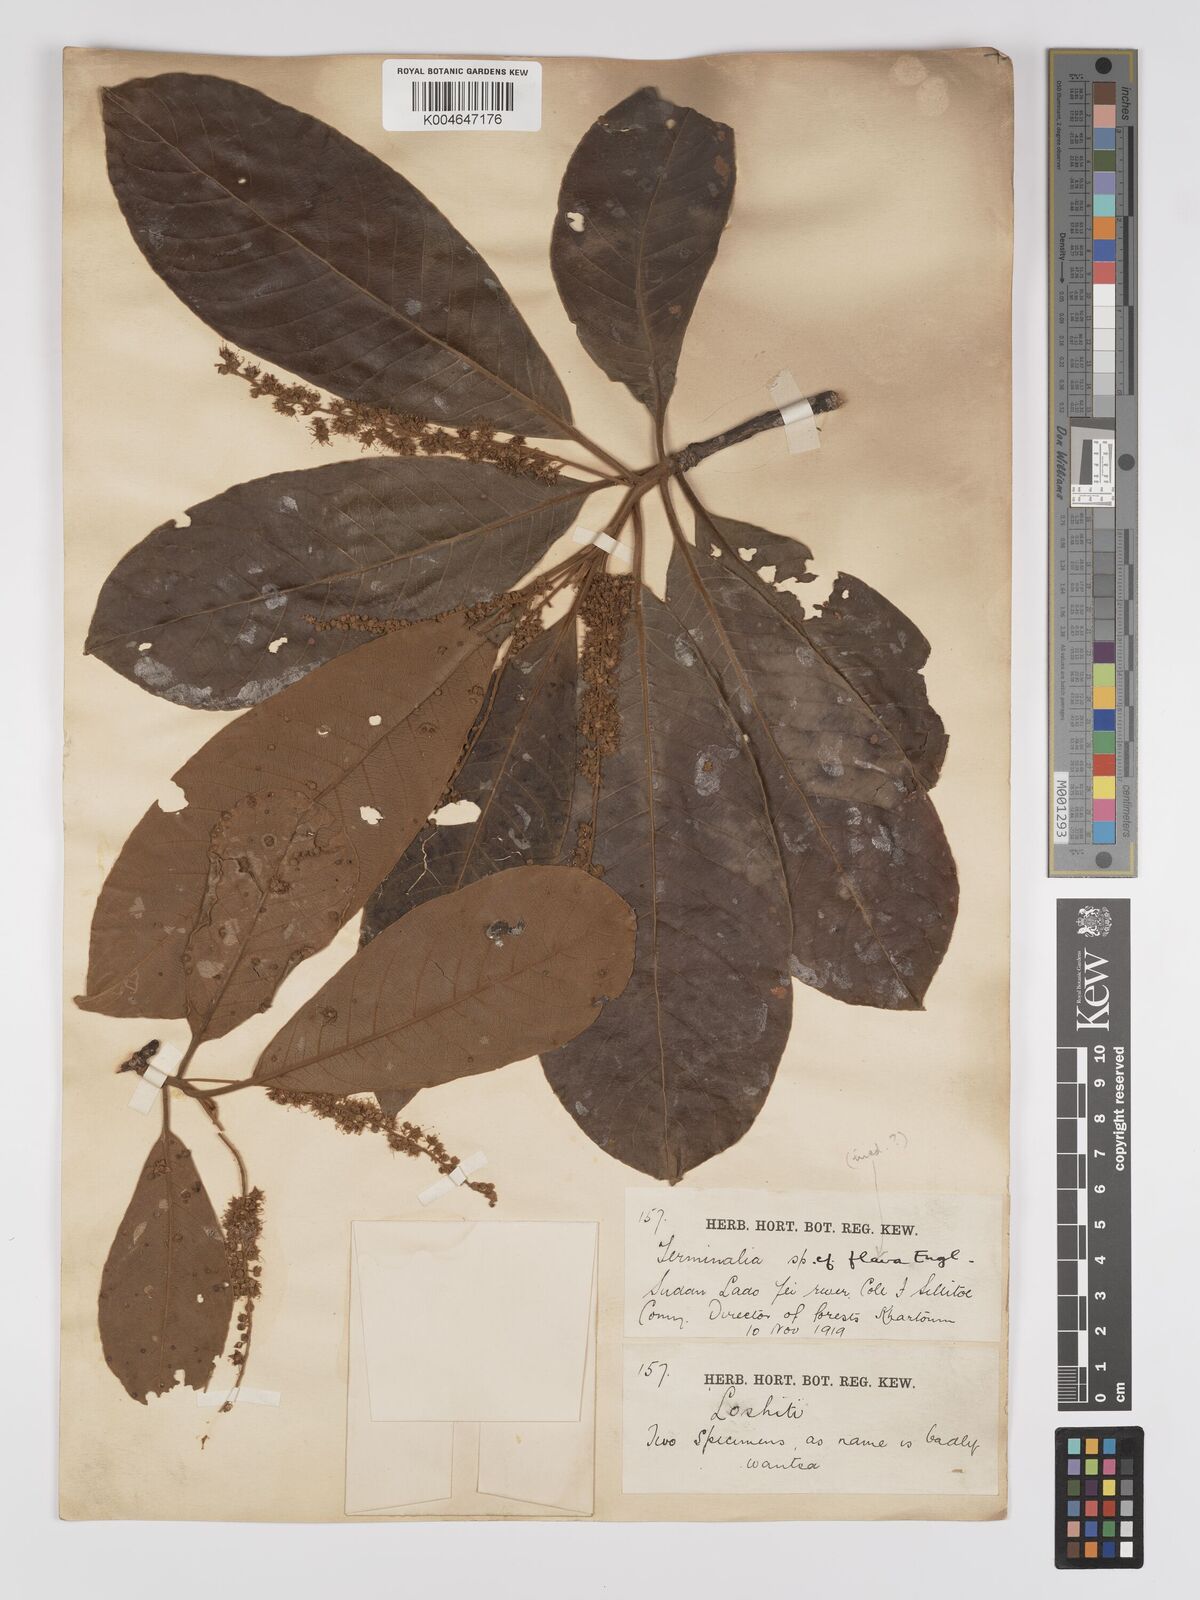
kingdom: Plantae
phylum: Tracheophyta
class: Magnoliopsida
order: Myrtales
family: Combretaceae
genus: Terminalia
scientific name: Terminalia schimperiana
